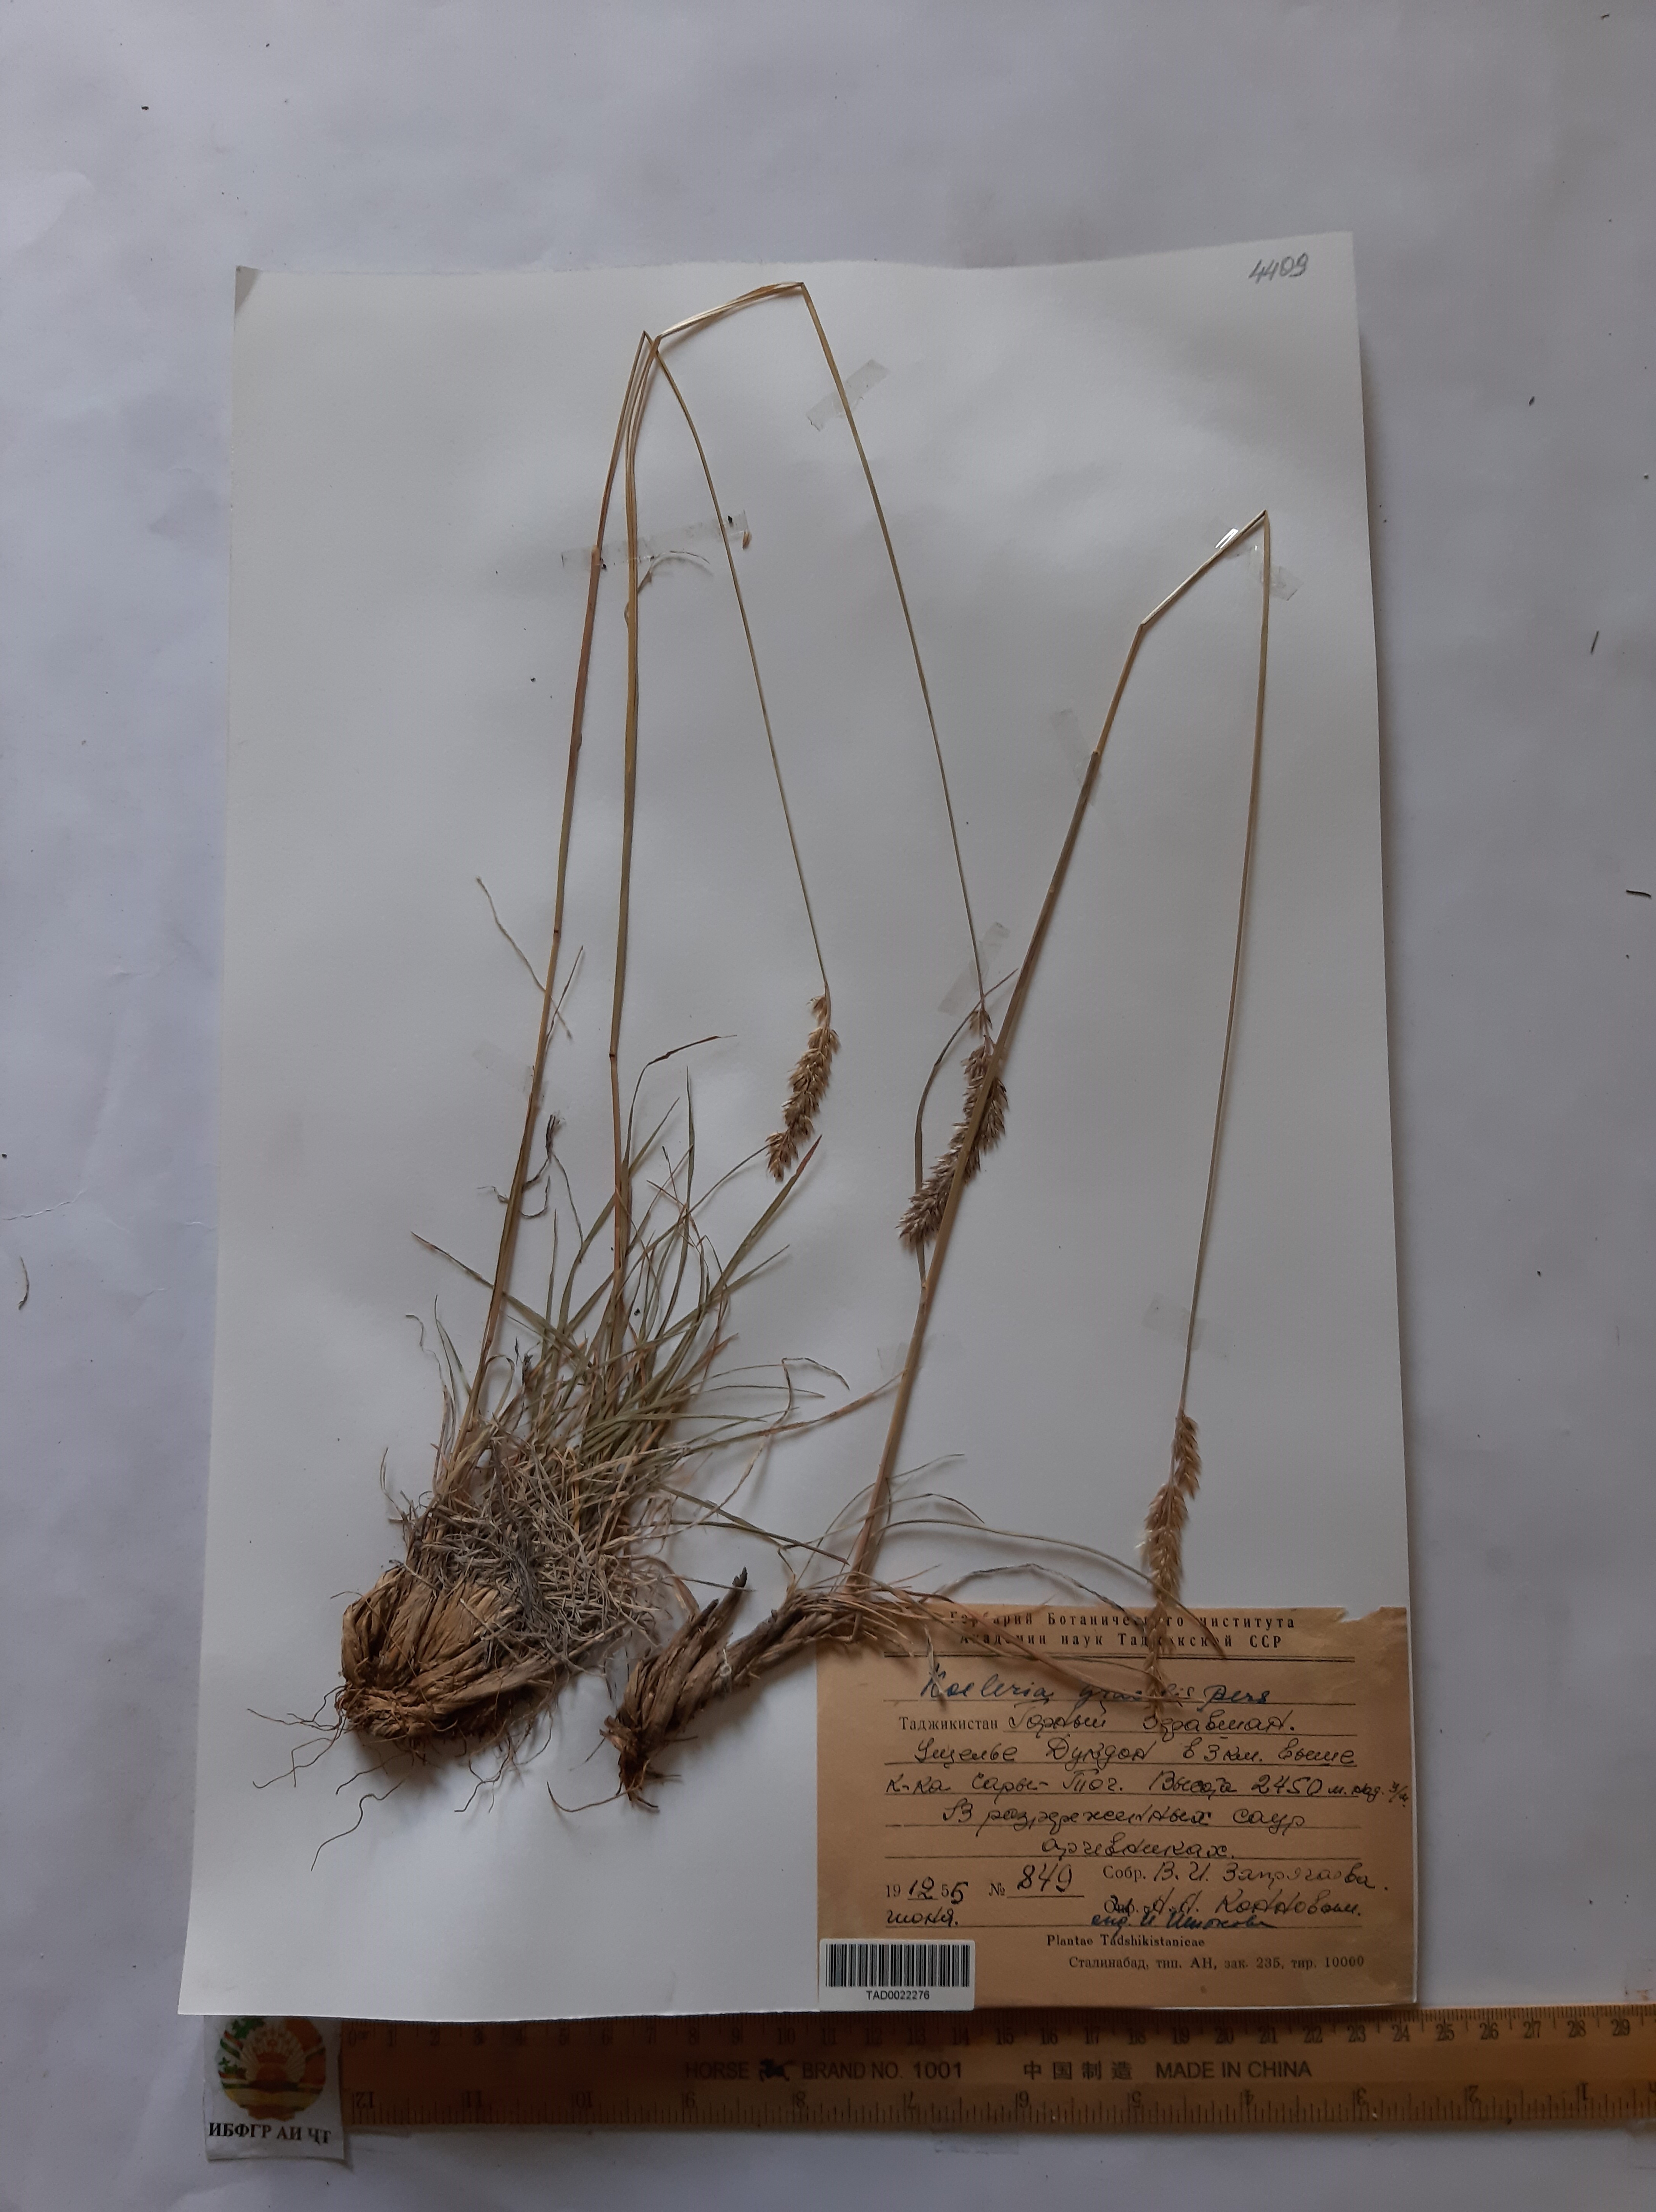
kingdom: Plantae
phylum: Tracheophyta
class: Liliopsida
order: Poales
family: Poaceae
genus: Koeleria
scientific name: Koeleria macrantha
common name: Crested hair-grass
